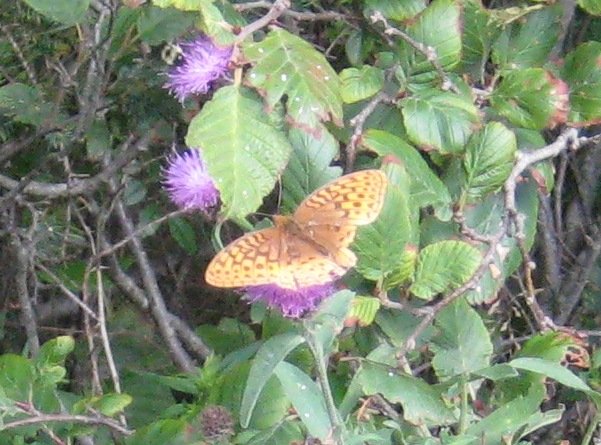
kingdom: Animalia
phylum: Arthropoda
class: Insecta
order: Lepidoptera
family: Nymphalidae
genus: Speyeria
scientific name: Speyeria cybele
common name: Great Spangled Fritillary
